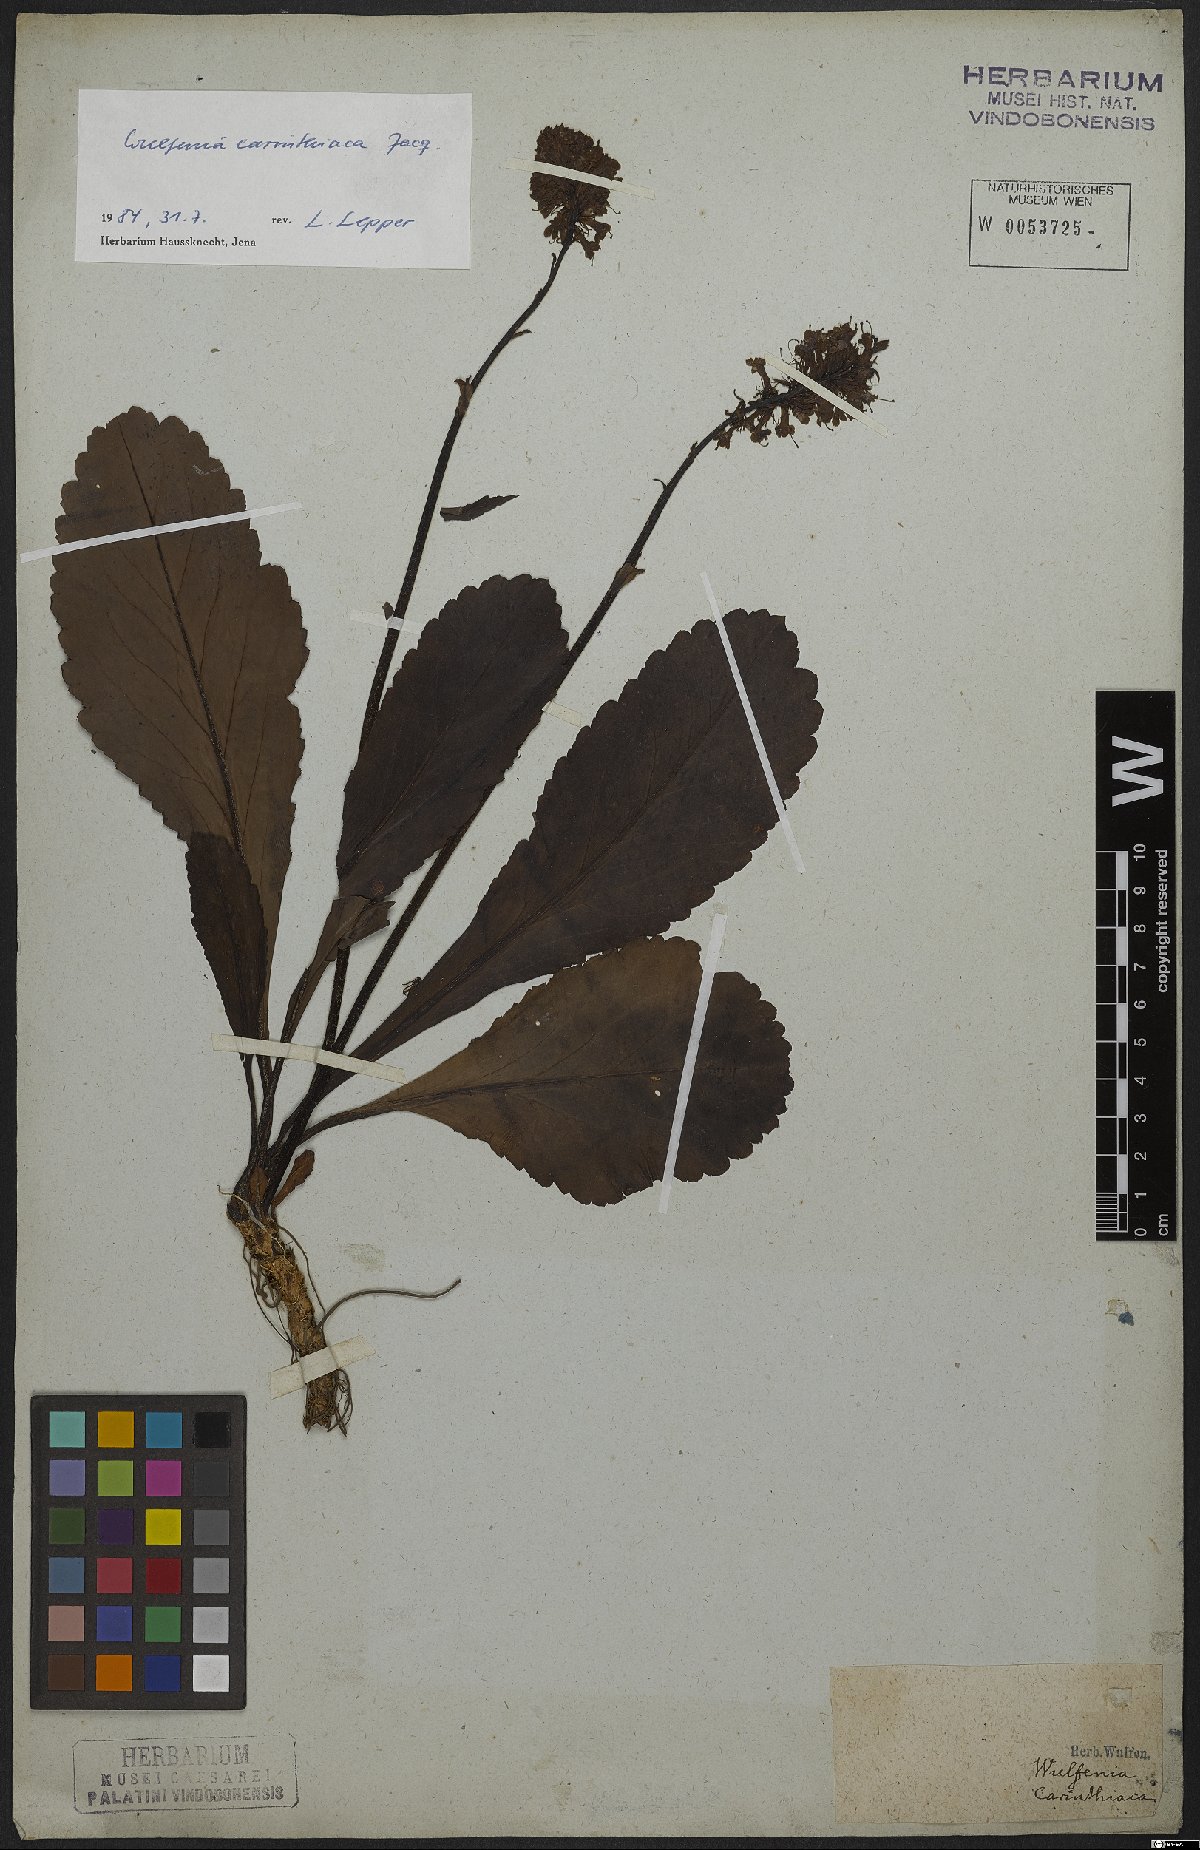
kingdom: Plantae
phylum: Tracheophyta
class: Magnoliopsida
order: Lamiales
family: Plantaginaceae
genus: Wulfenia
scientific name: Wulfenia carinthiaca
